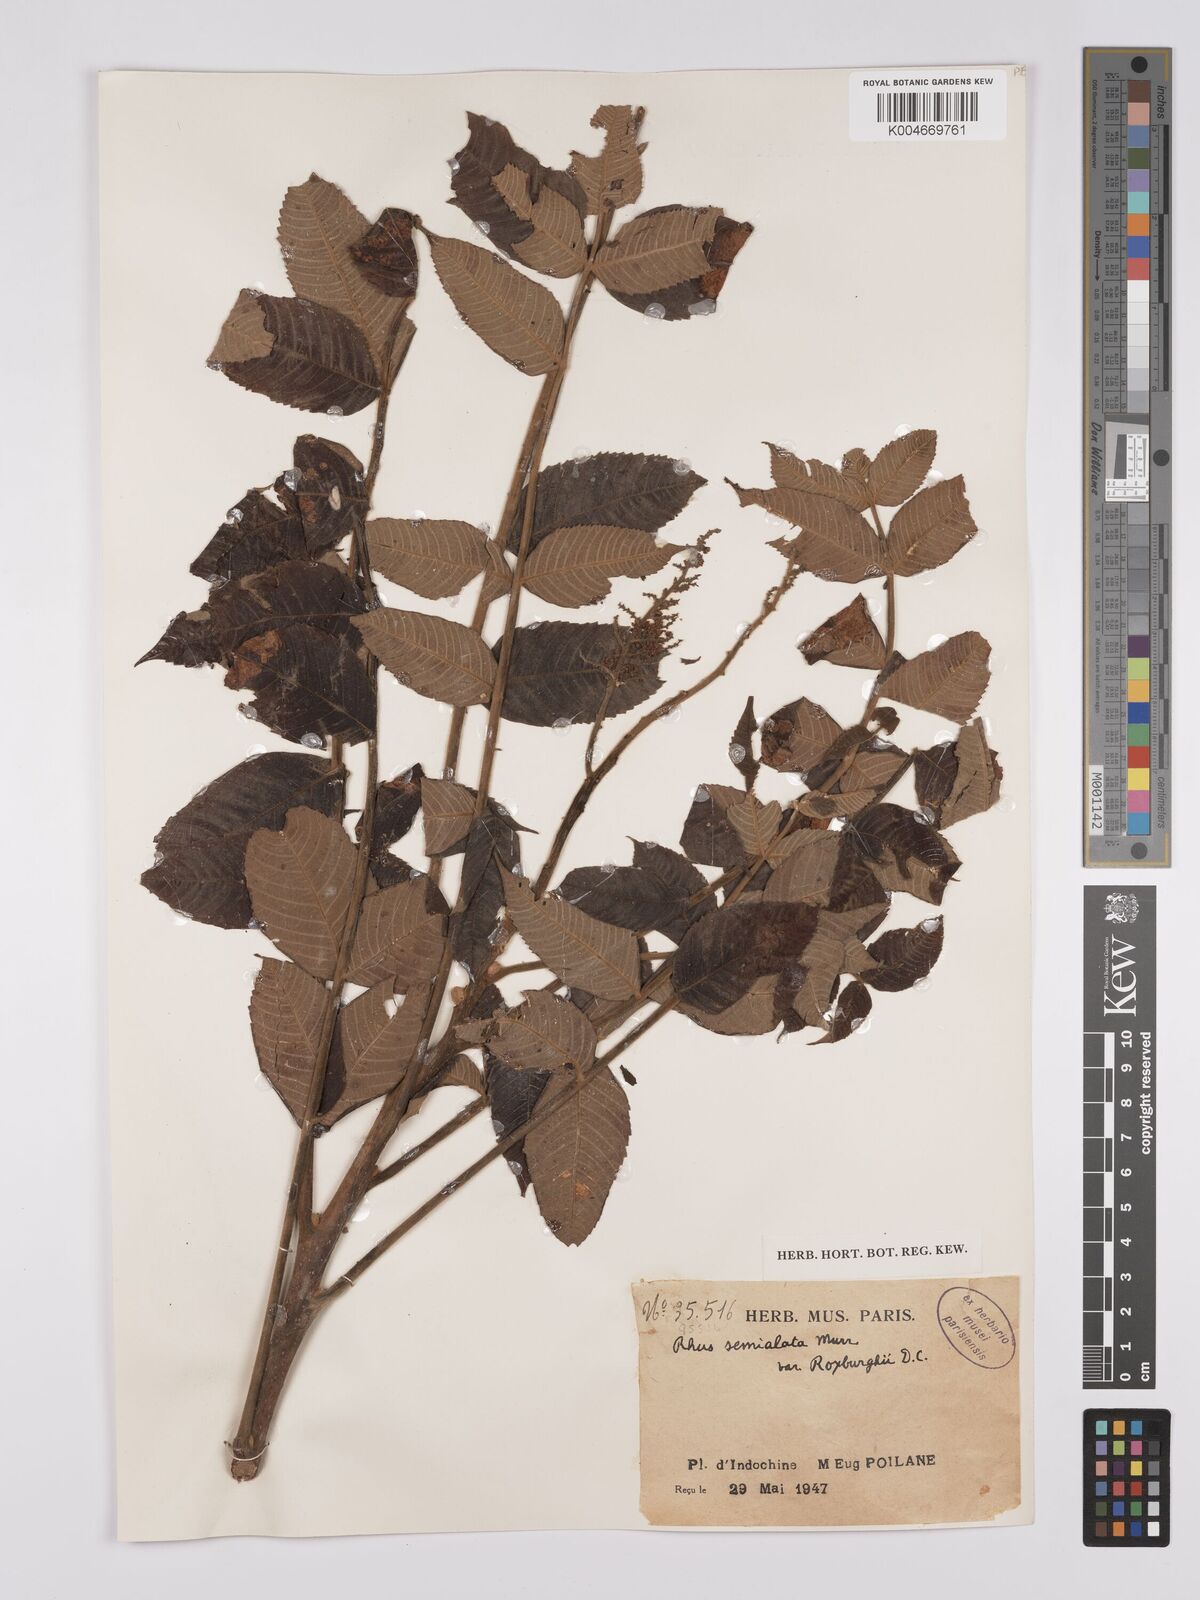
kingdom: Plantae
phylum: Tracheophyta
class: Magnoliopsida
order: Sapindales
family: Anacardiaceae
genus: Rhus
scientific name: Rhus chinensis
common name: Chinese gall
